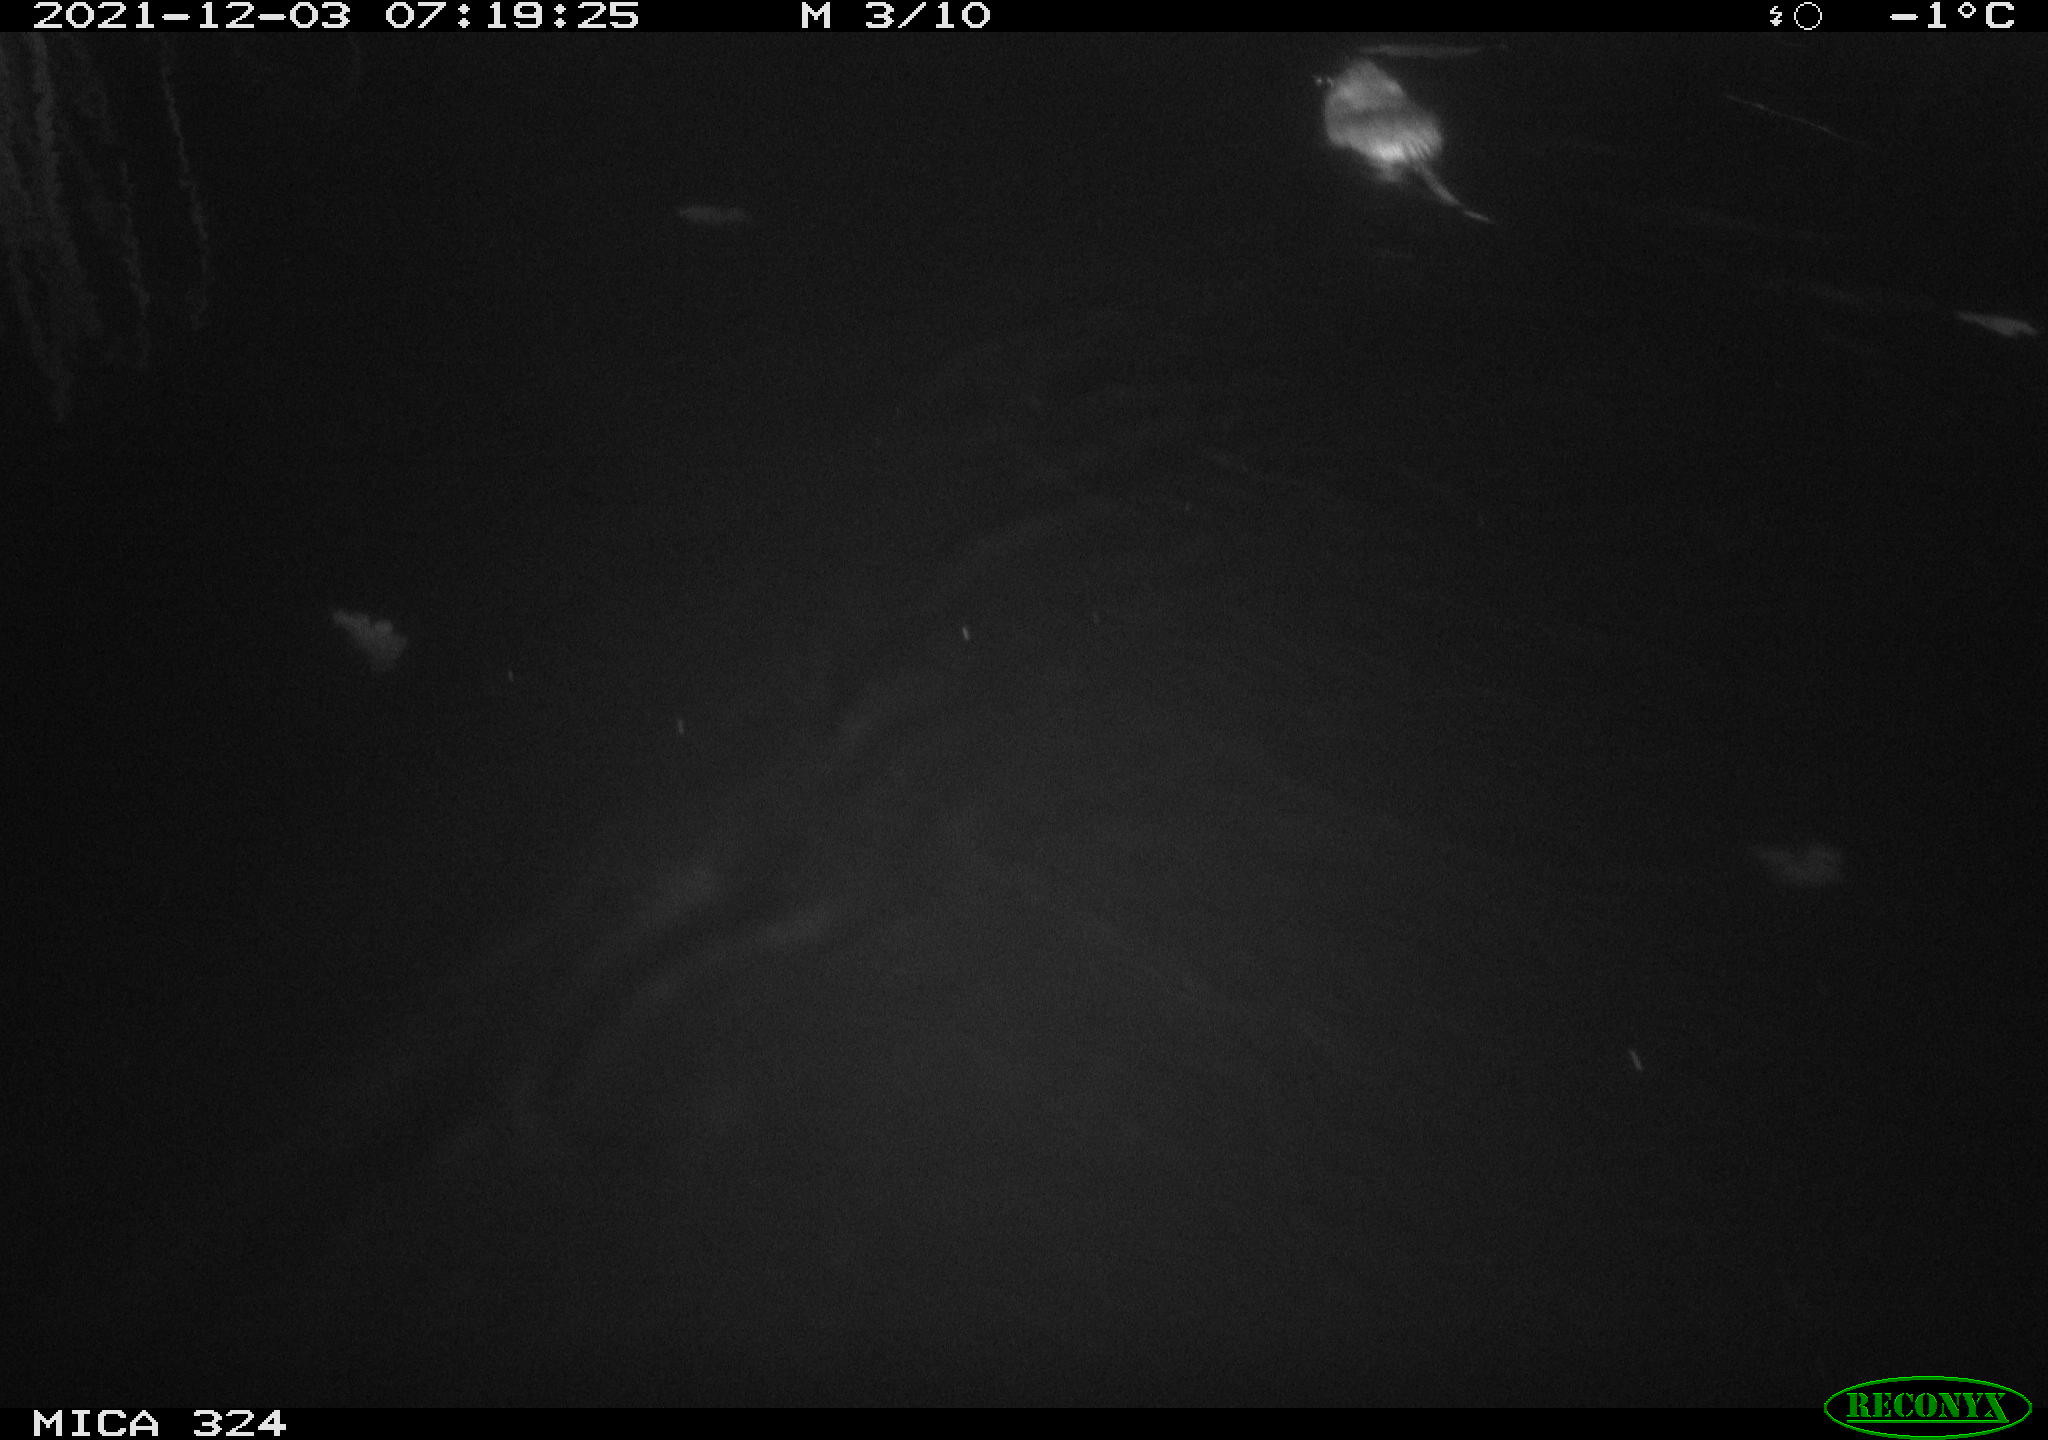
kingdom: Animalia
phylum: Chordata
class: Mammalia
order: Rodentia
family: Cricetidae
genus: Ondatra
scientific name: Ondatra zibethicus
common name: Muskrat
